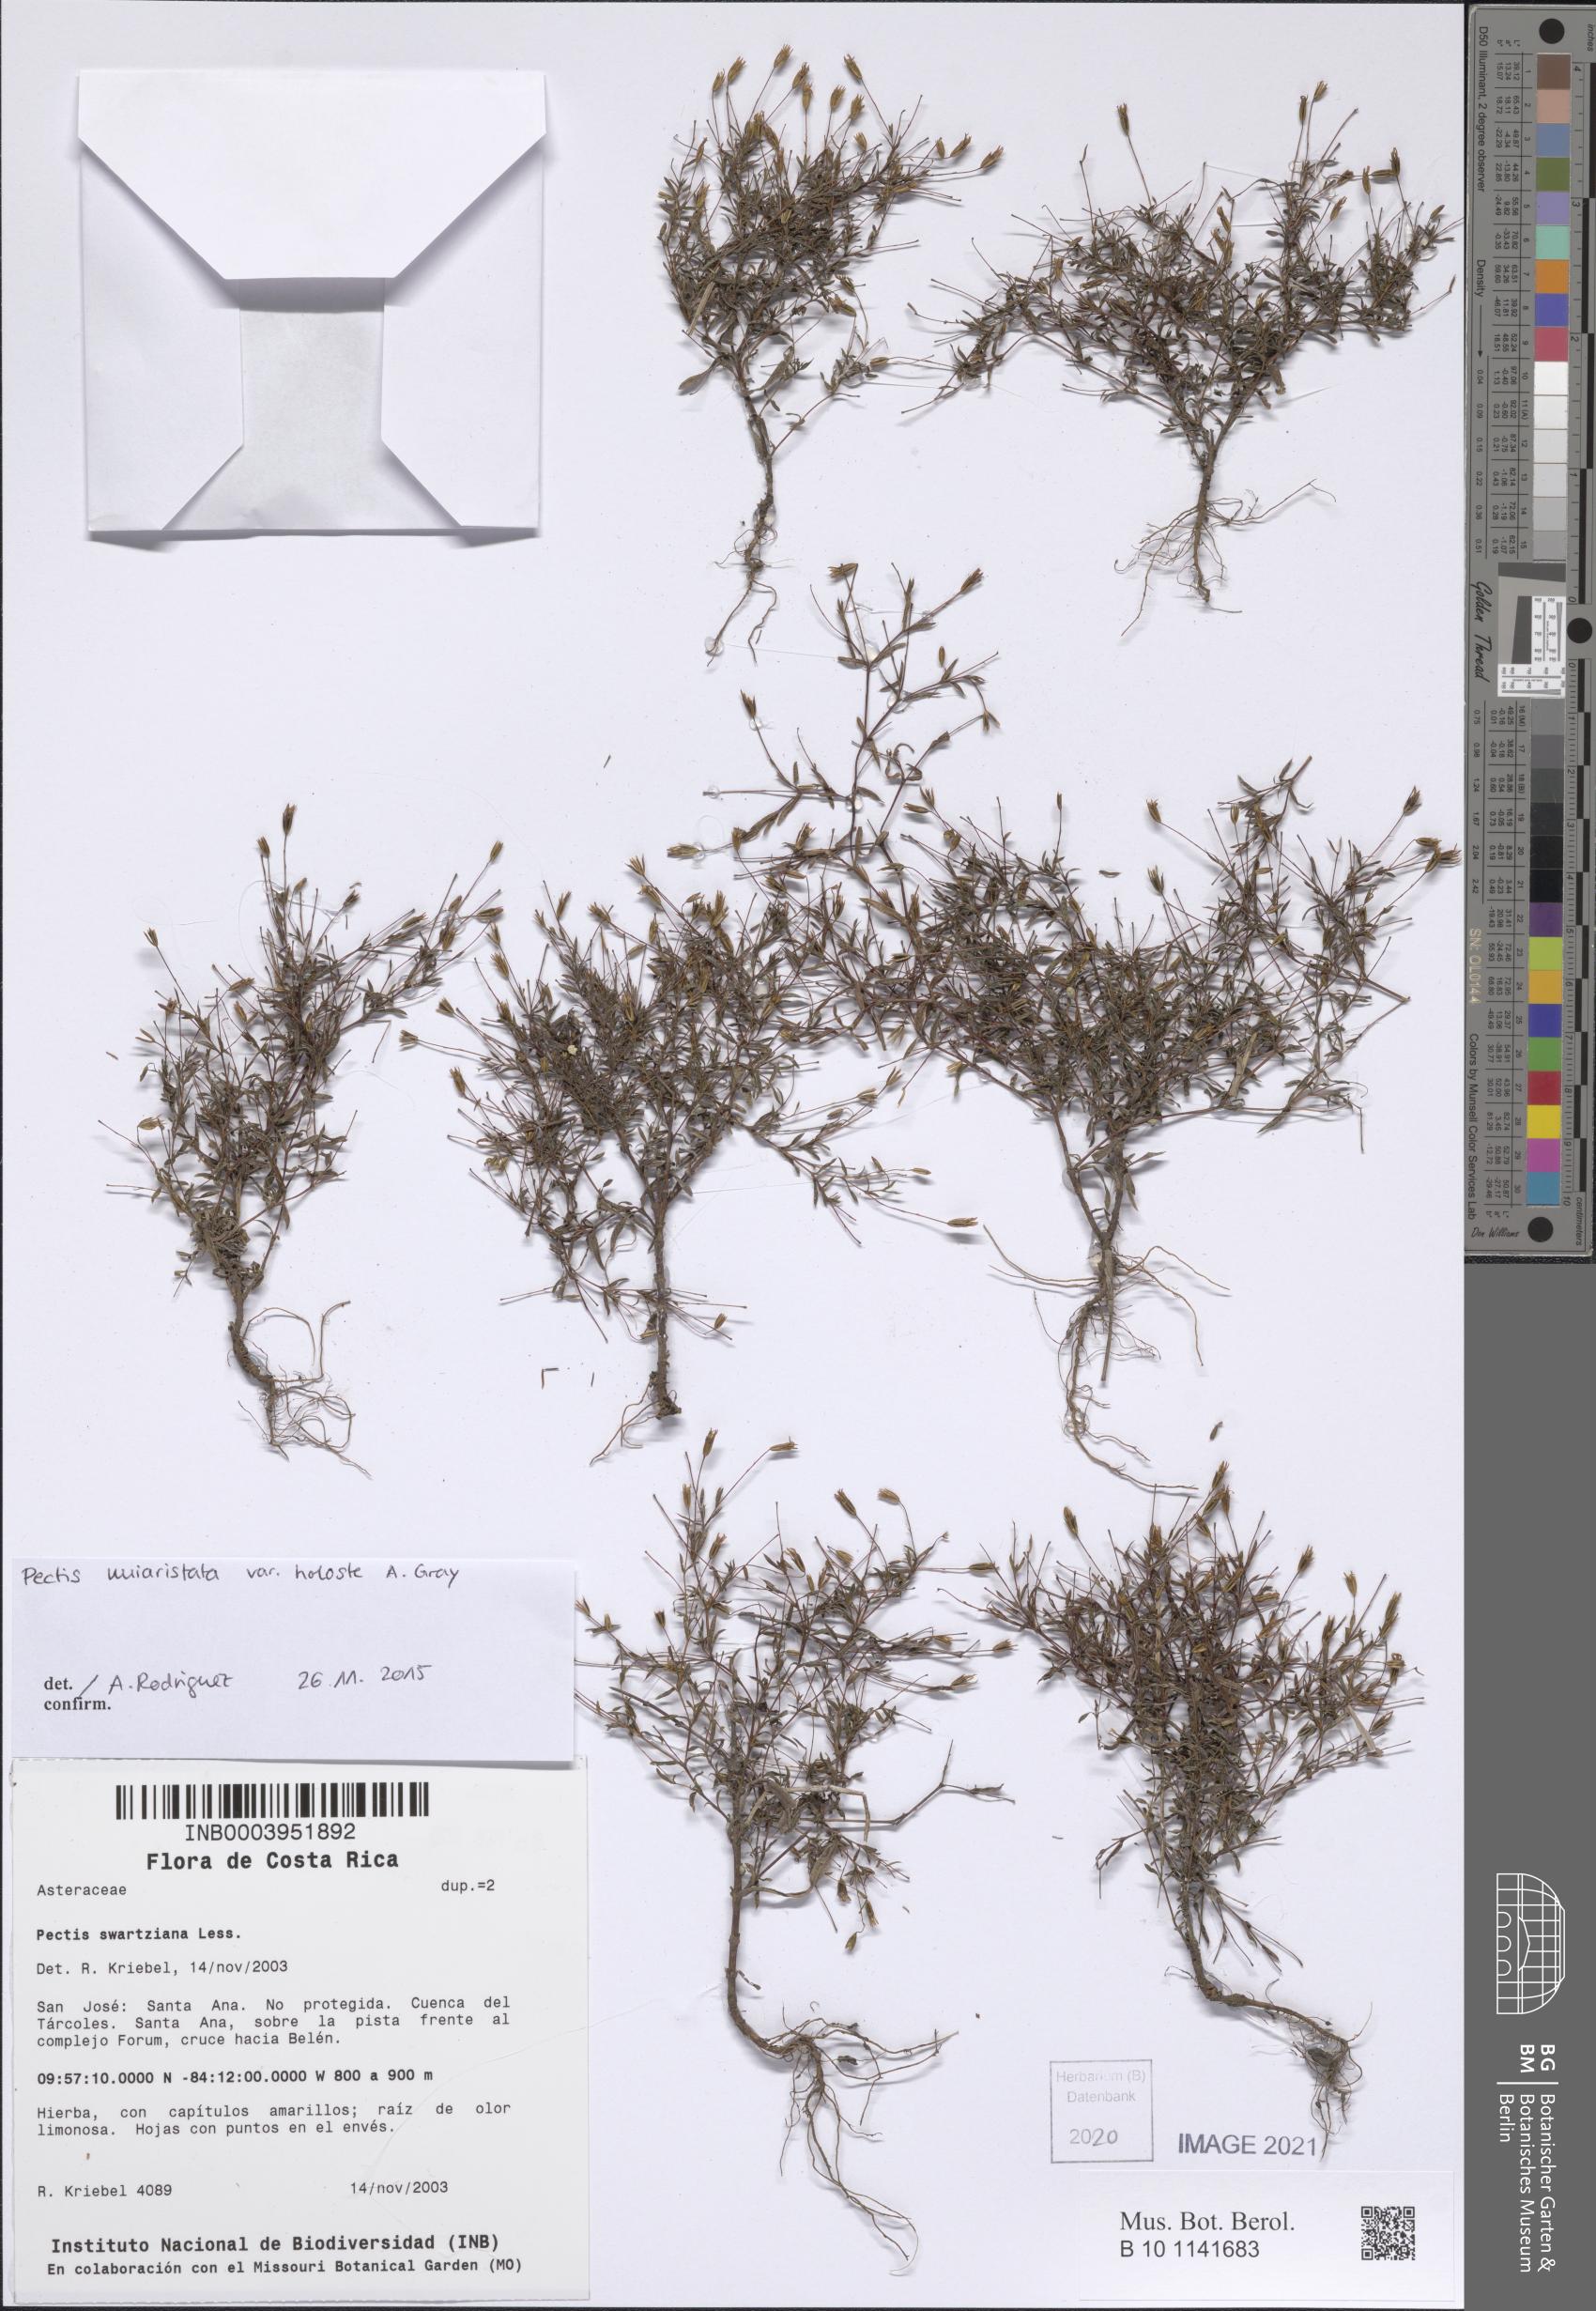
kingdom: Plantae
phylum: Tracheophyta
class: Magnoliopsida
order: Asterales
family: Asteraceae
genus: Pectis
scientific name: Pectis uniaristata
